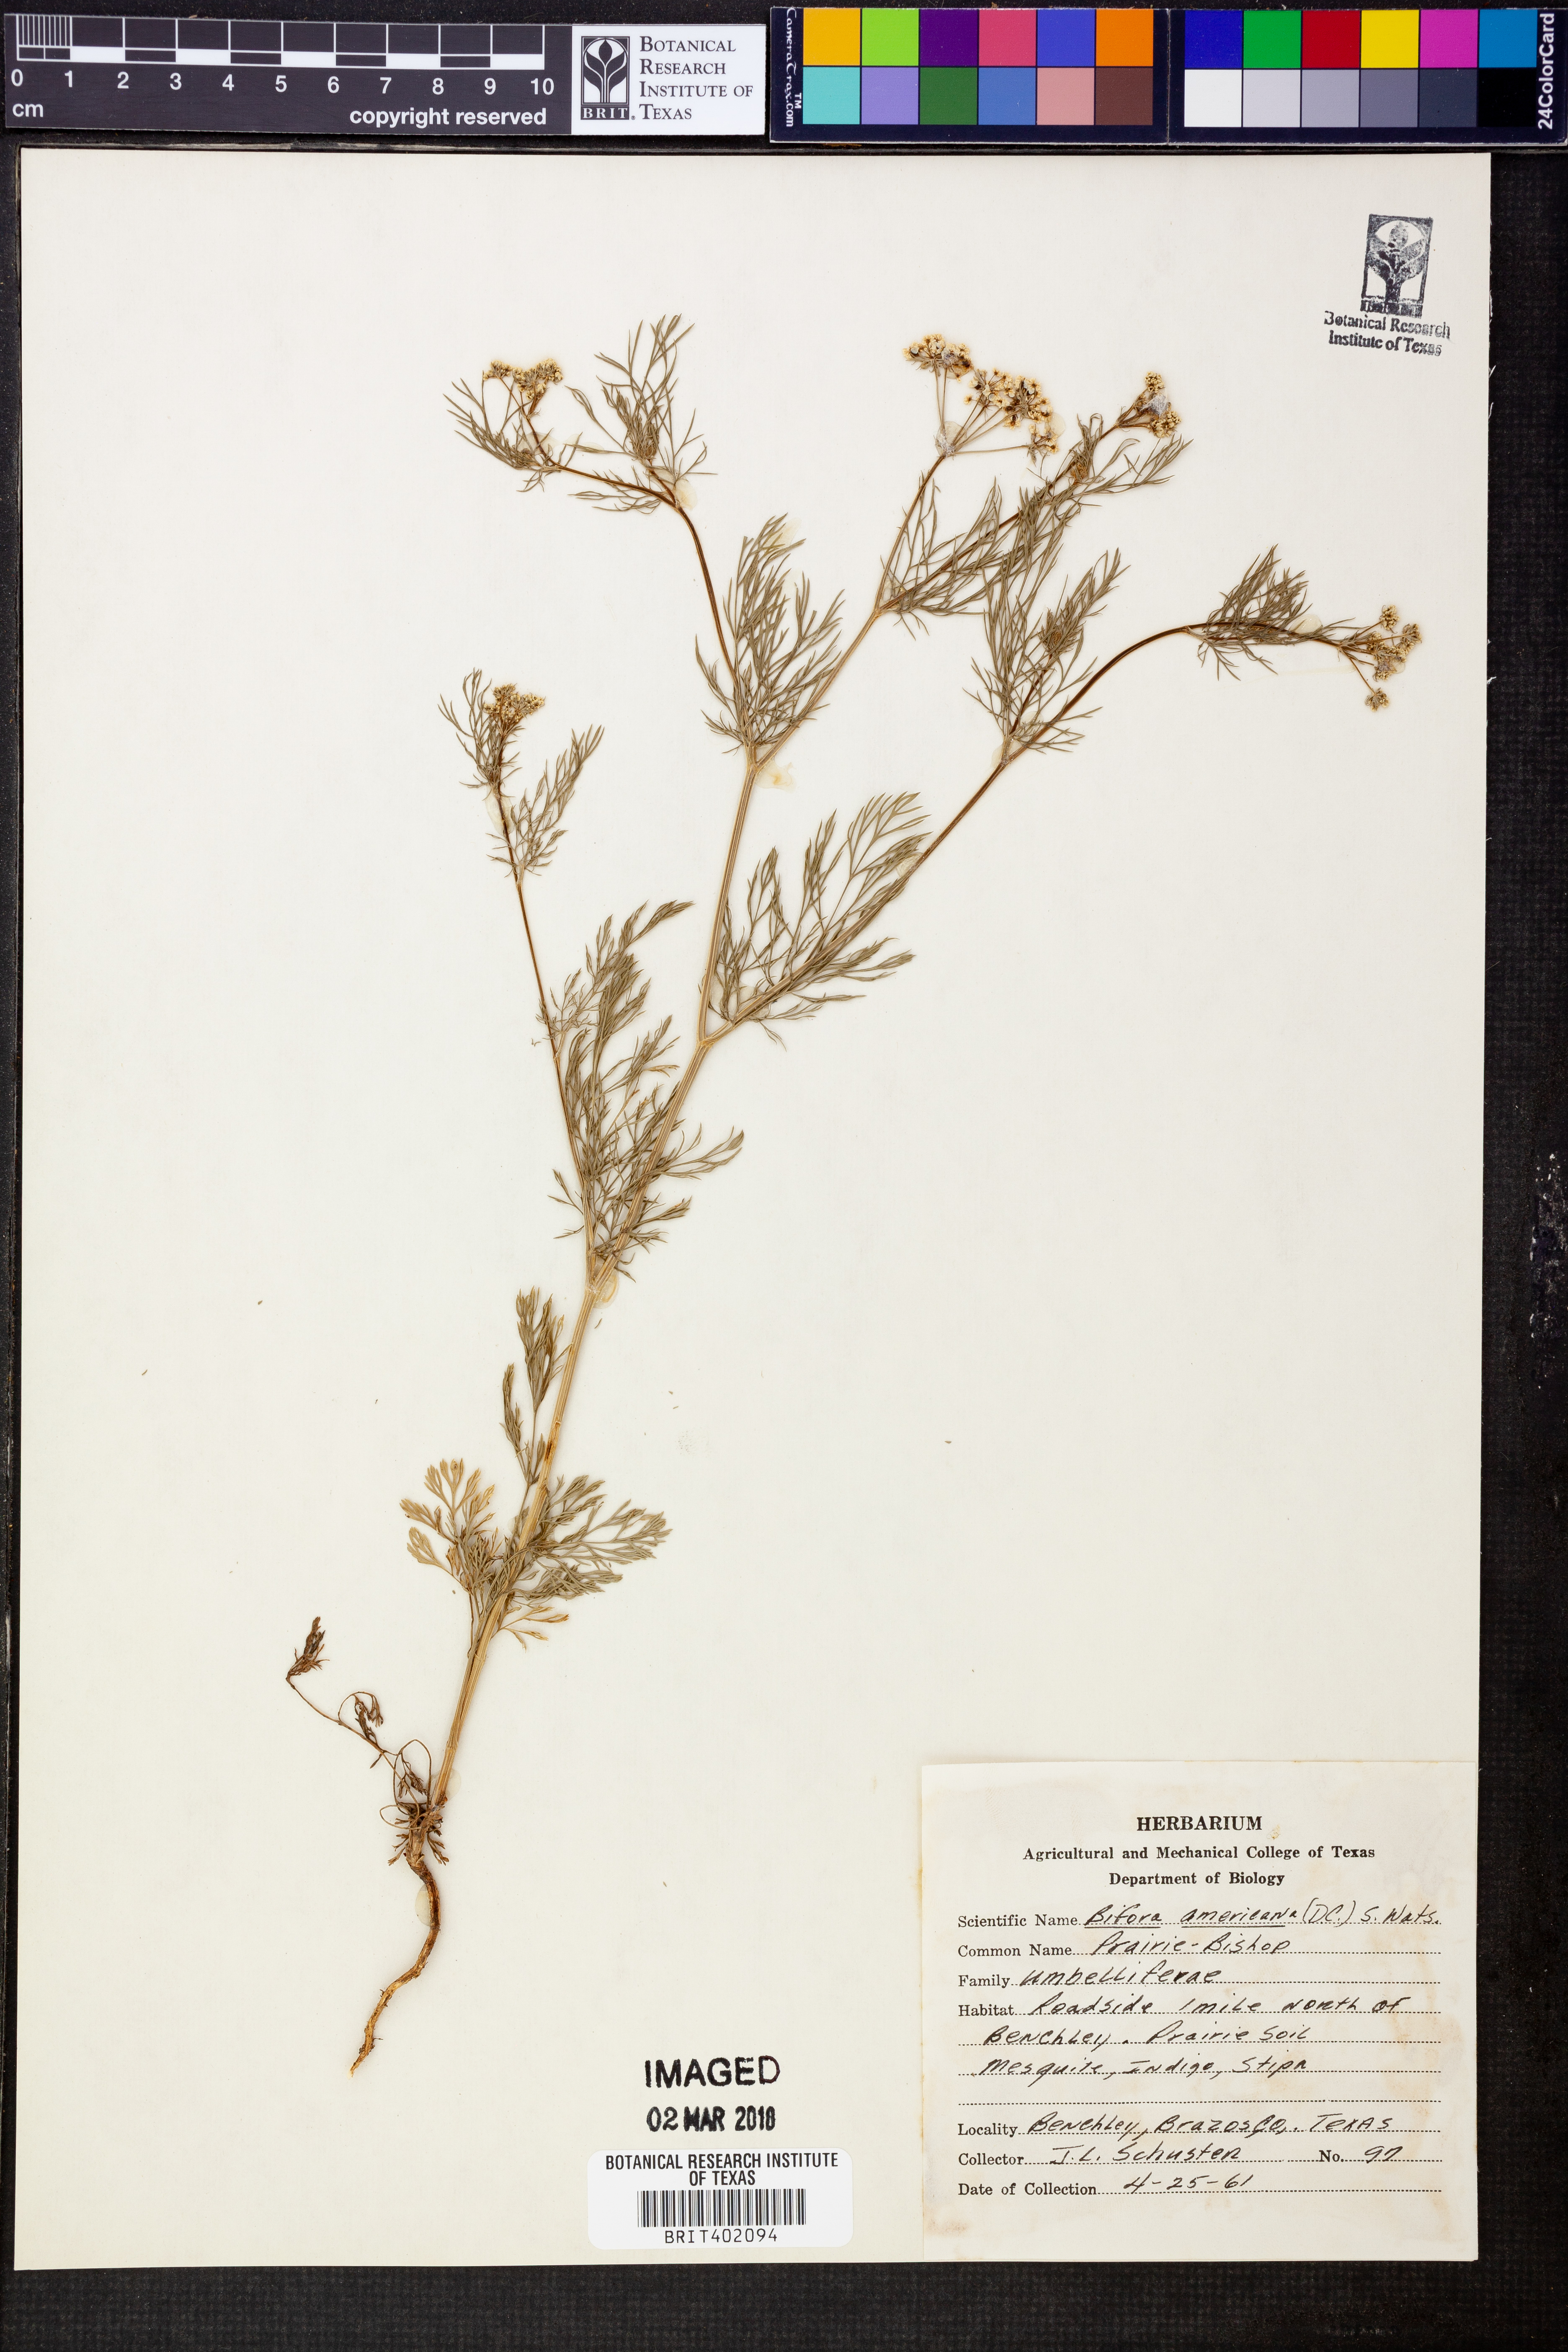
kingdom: Plantae
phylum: Tracheophyta
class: Magnoliopsida
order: Apiales
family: Apiaceae
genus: Atrema
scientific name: Atrema americanum
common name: Prairie-bishop
